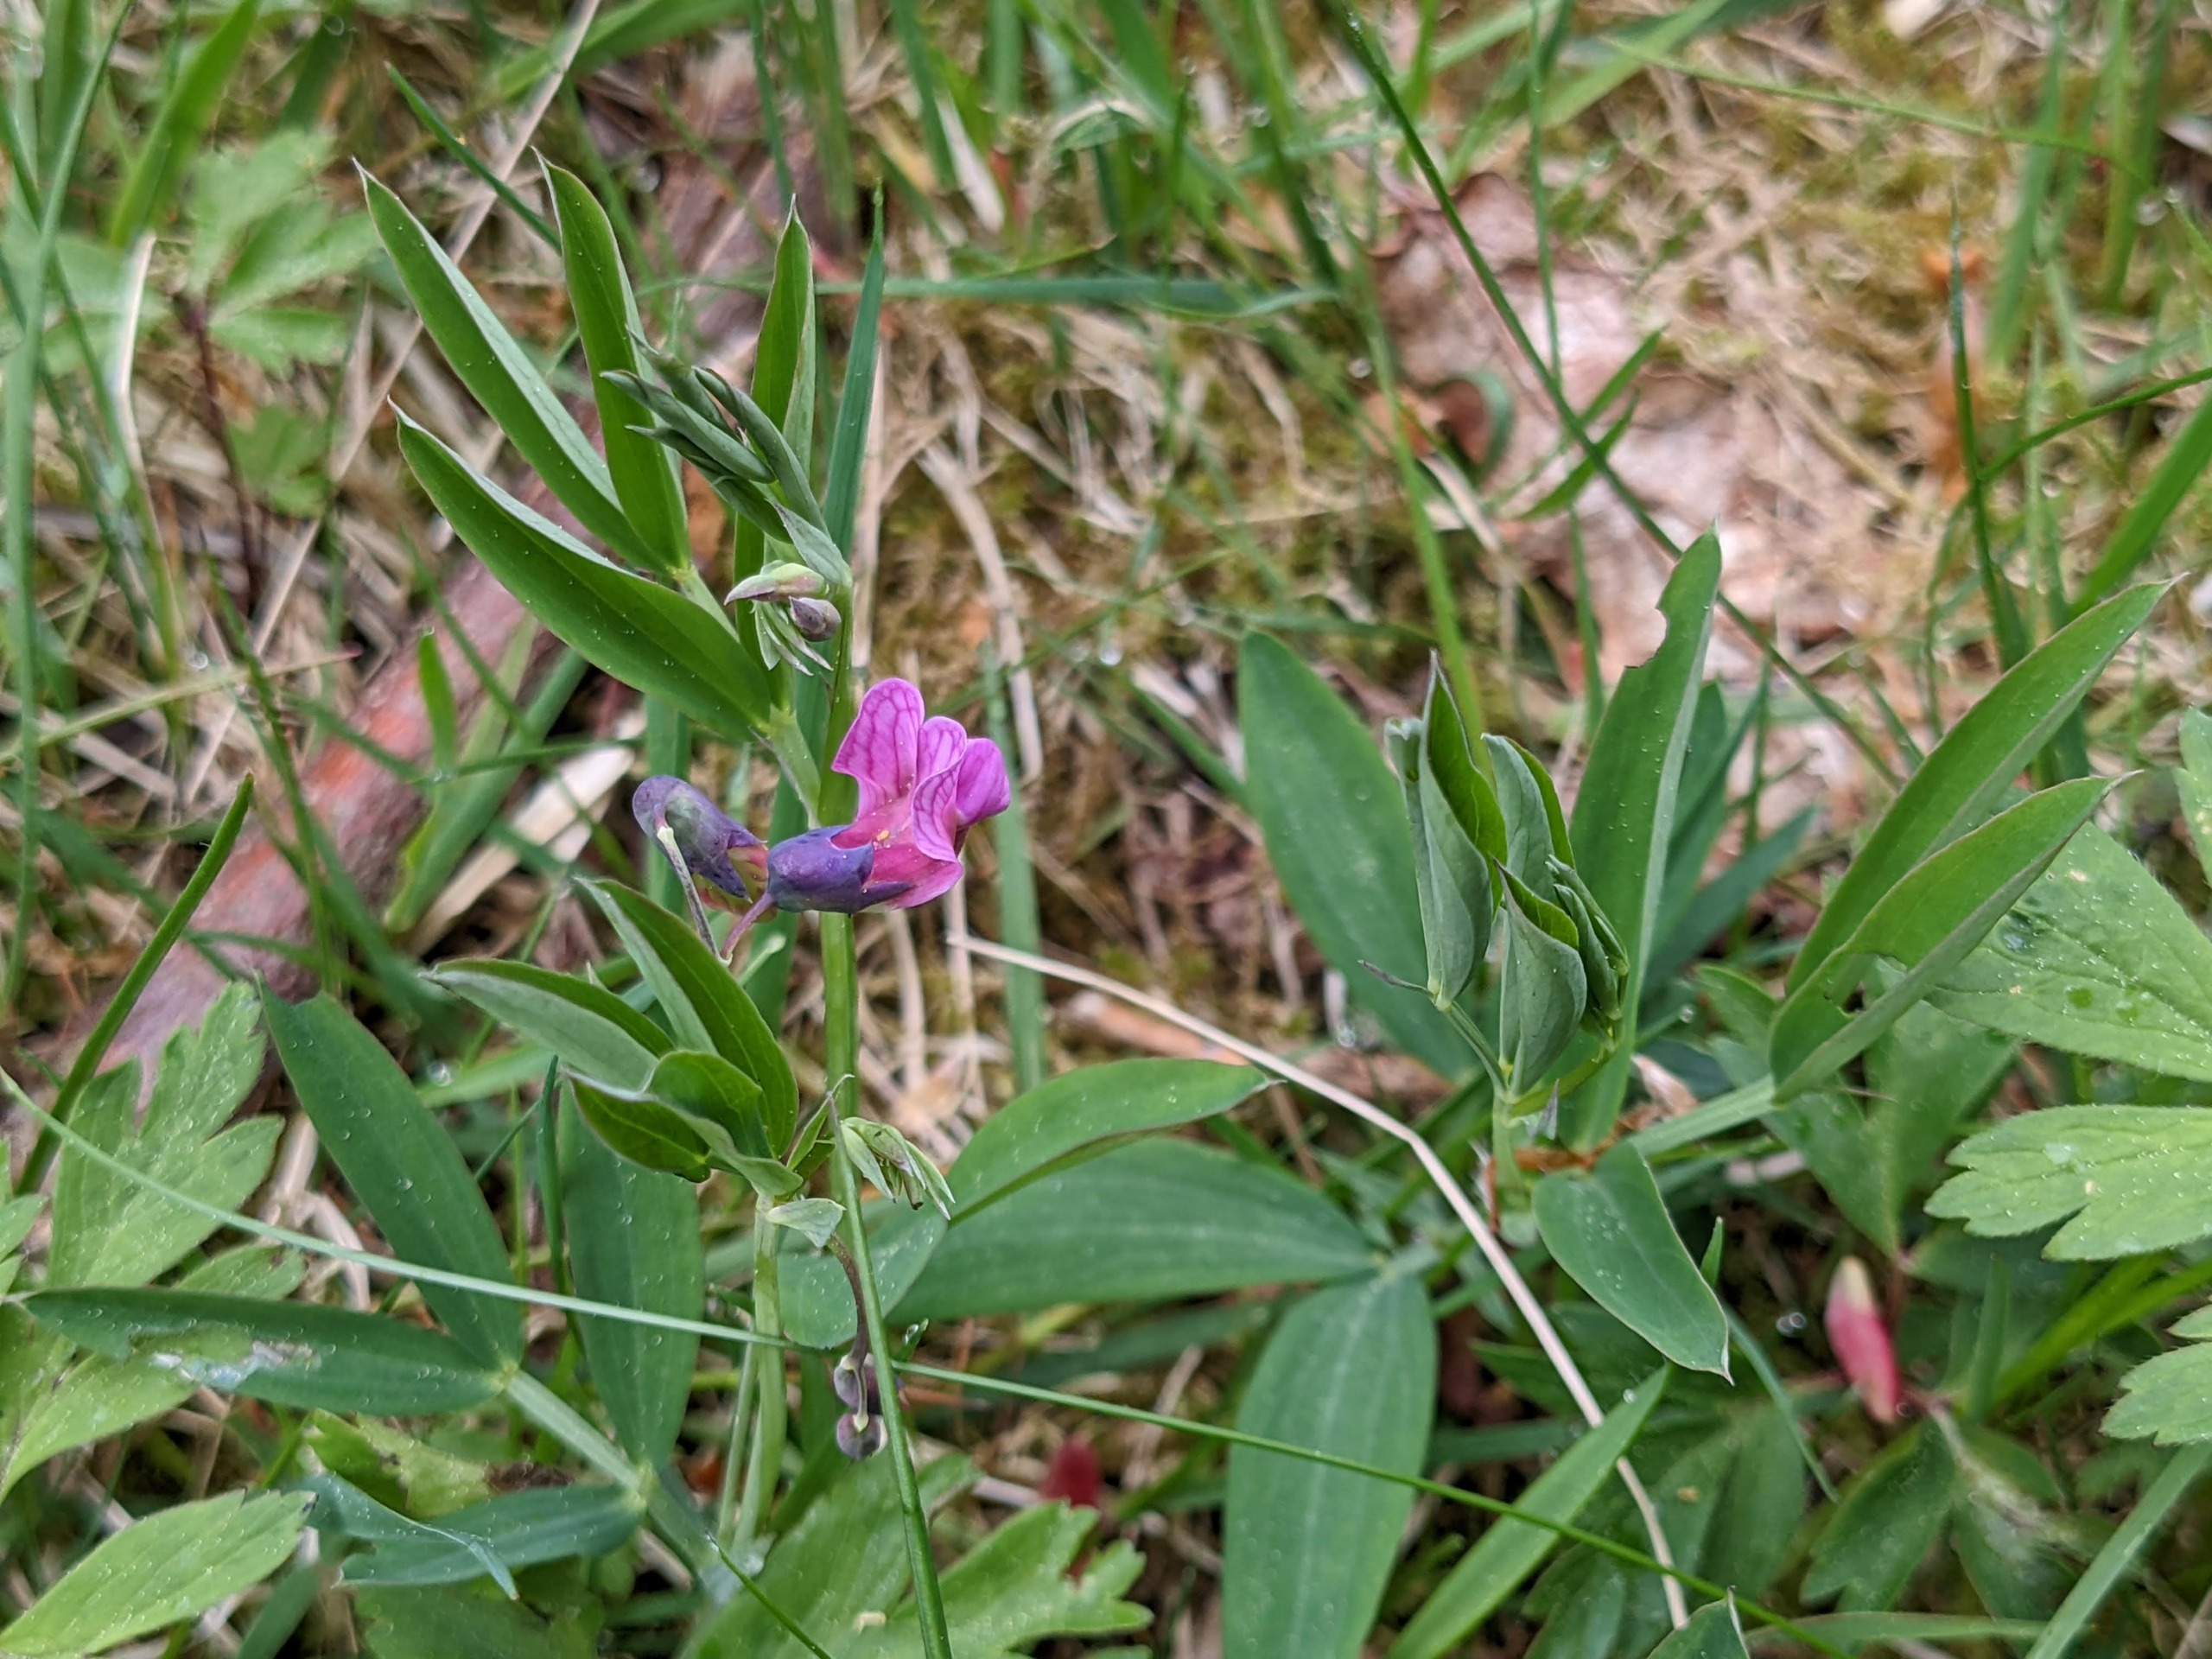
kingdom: Plantae
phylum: Tracheophyta
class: Magnoliopsida
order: Fabales
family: Fabaceae
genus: Lathyrus
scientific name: Lathyrus linifolius
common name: Krat-fladbælg
